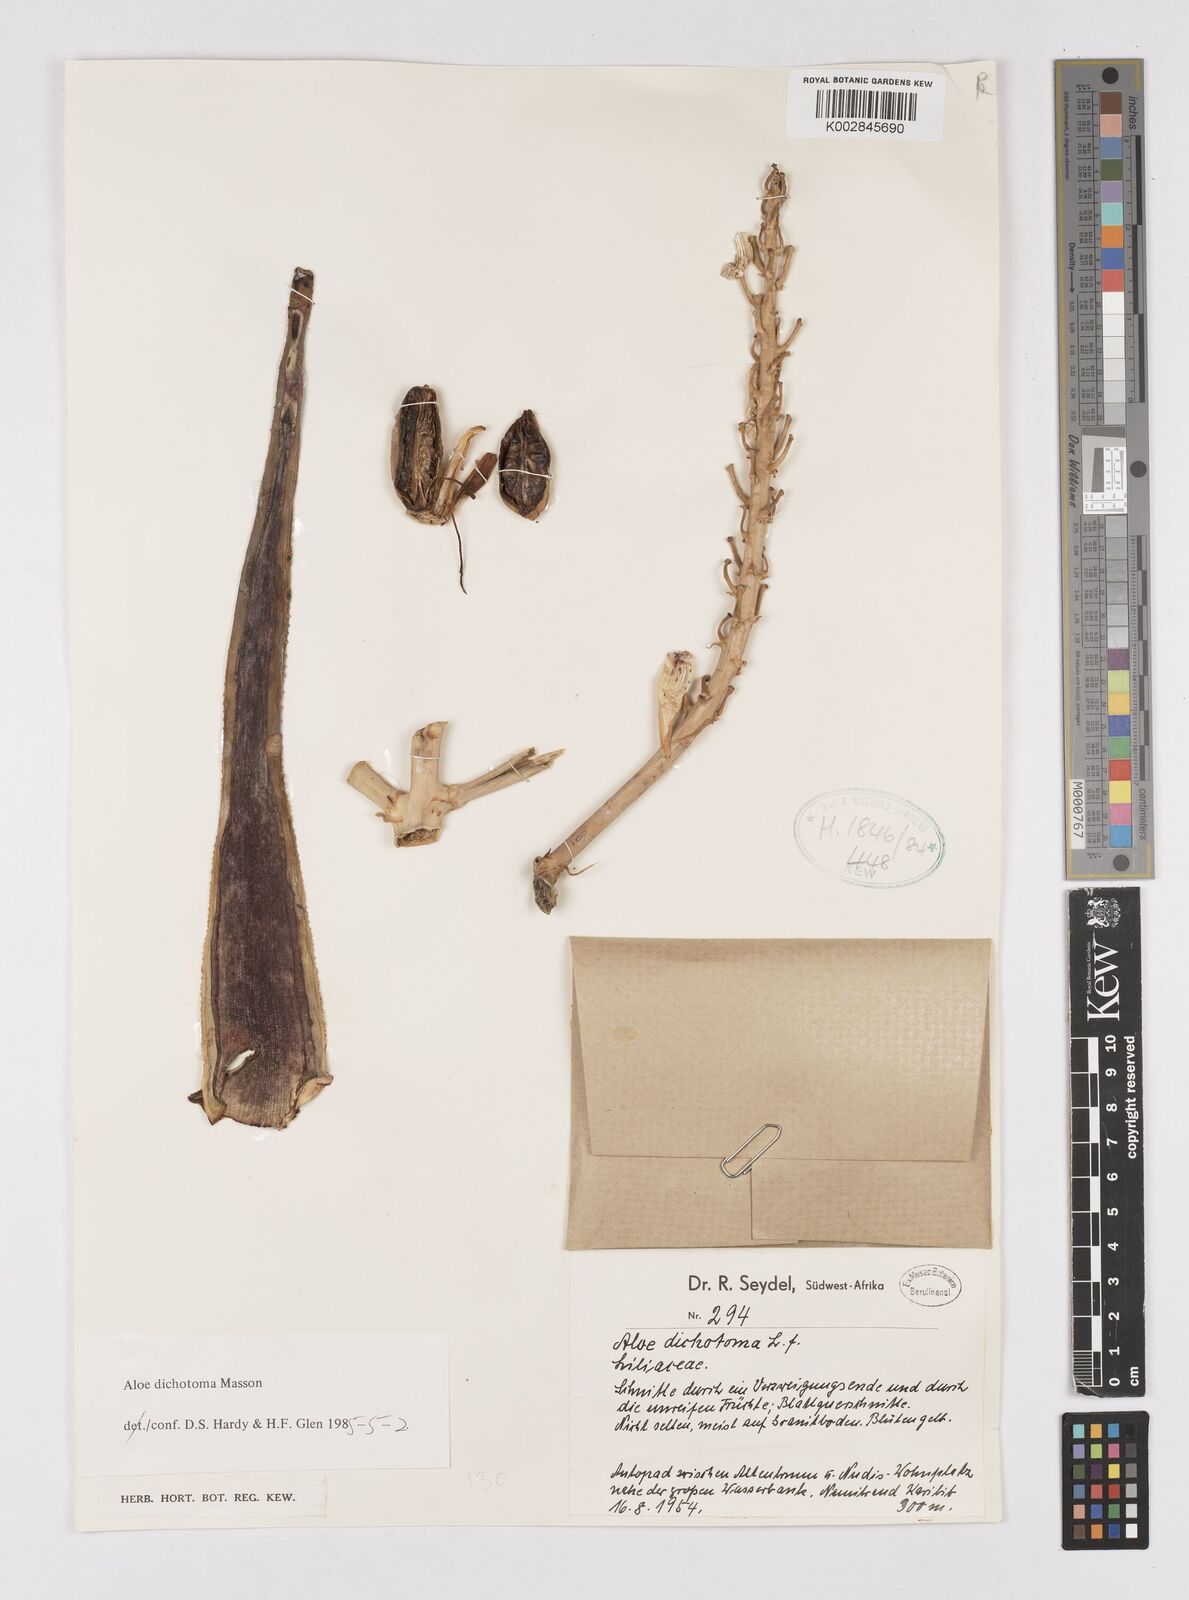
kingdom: Plantae
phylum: Tracheophyta
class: Liliopsida
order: Asparagales
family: Asphodelaceae
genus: Aloidendron
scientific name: Aloidendron dichotomum
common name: Quiver tree
